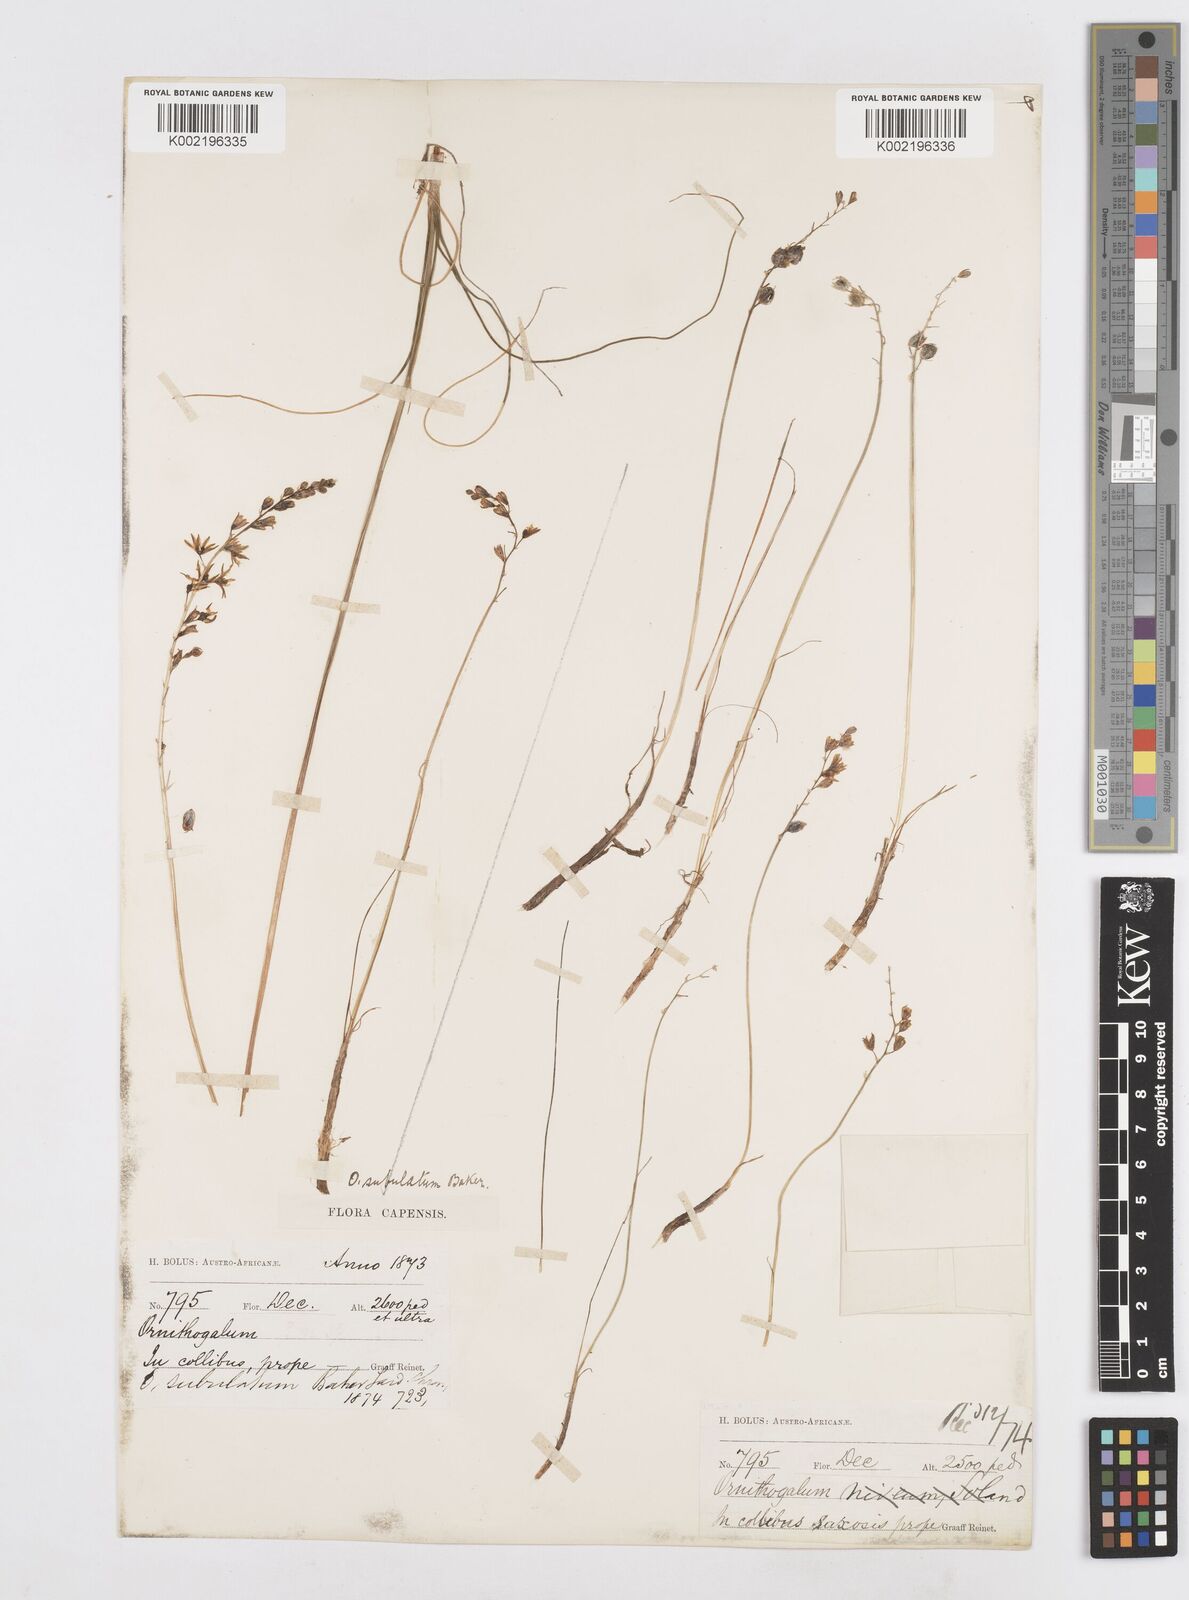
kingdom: Plantae
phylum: Tracheophyta
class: Liliopsida
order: Asparagales
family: Asparagaceae
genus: Ornithogalum
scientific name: Ornithogalum juncifolium
